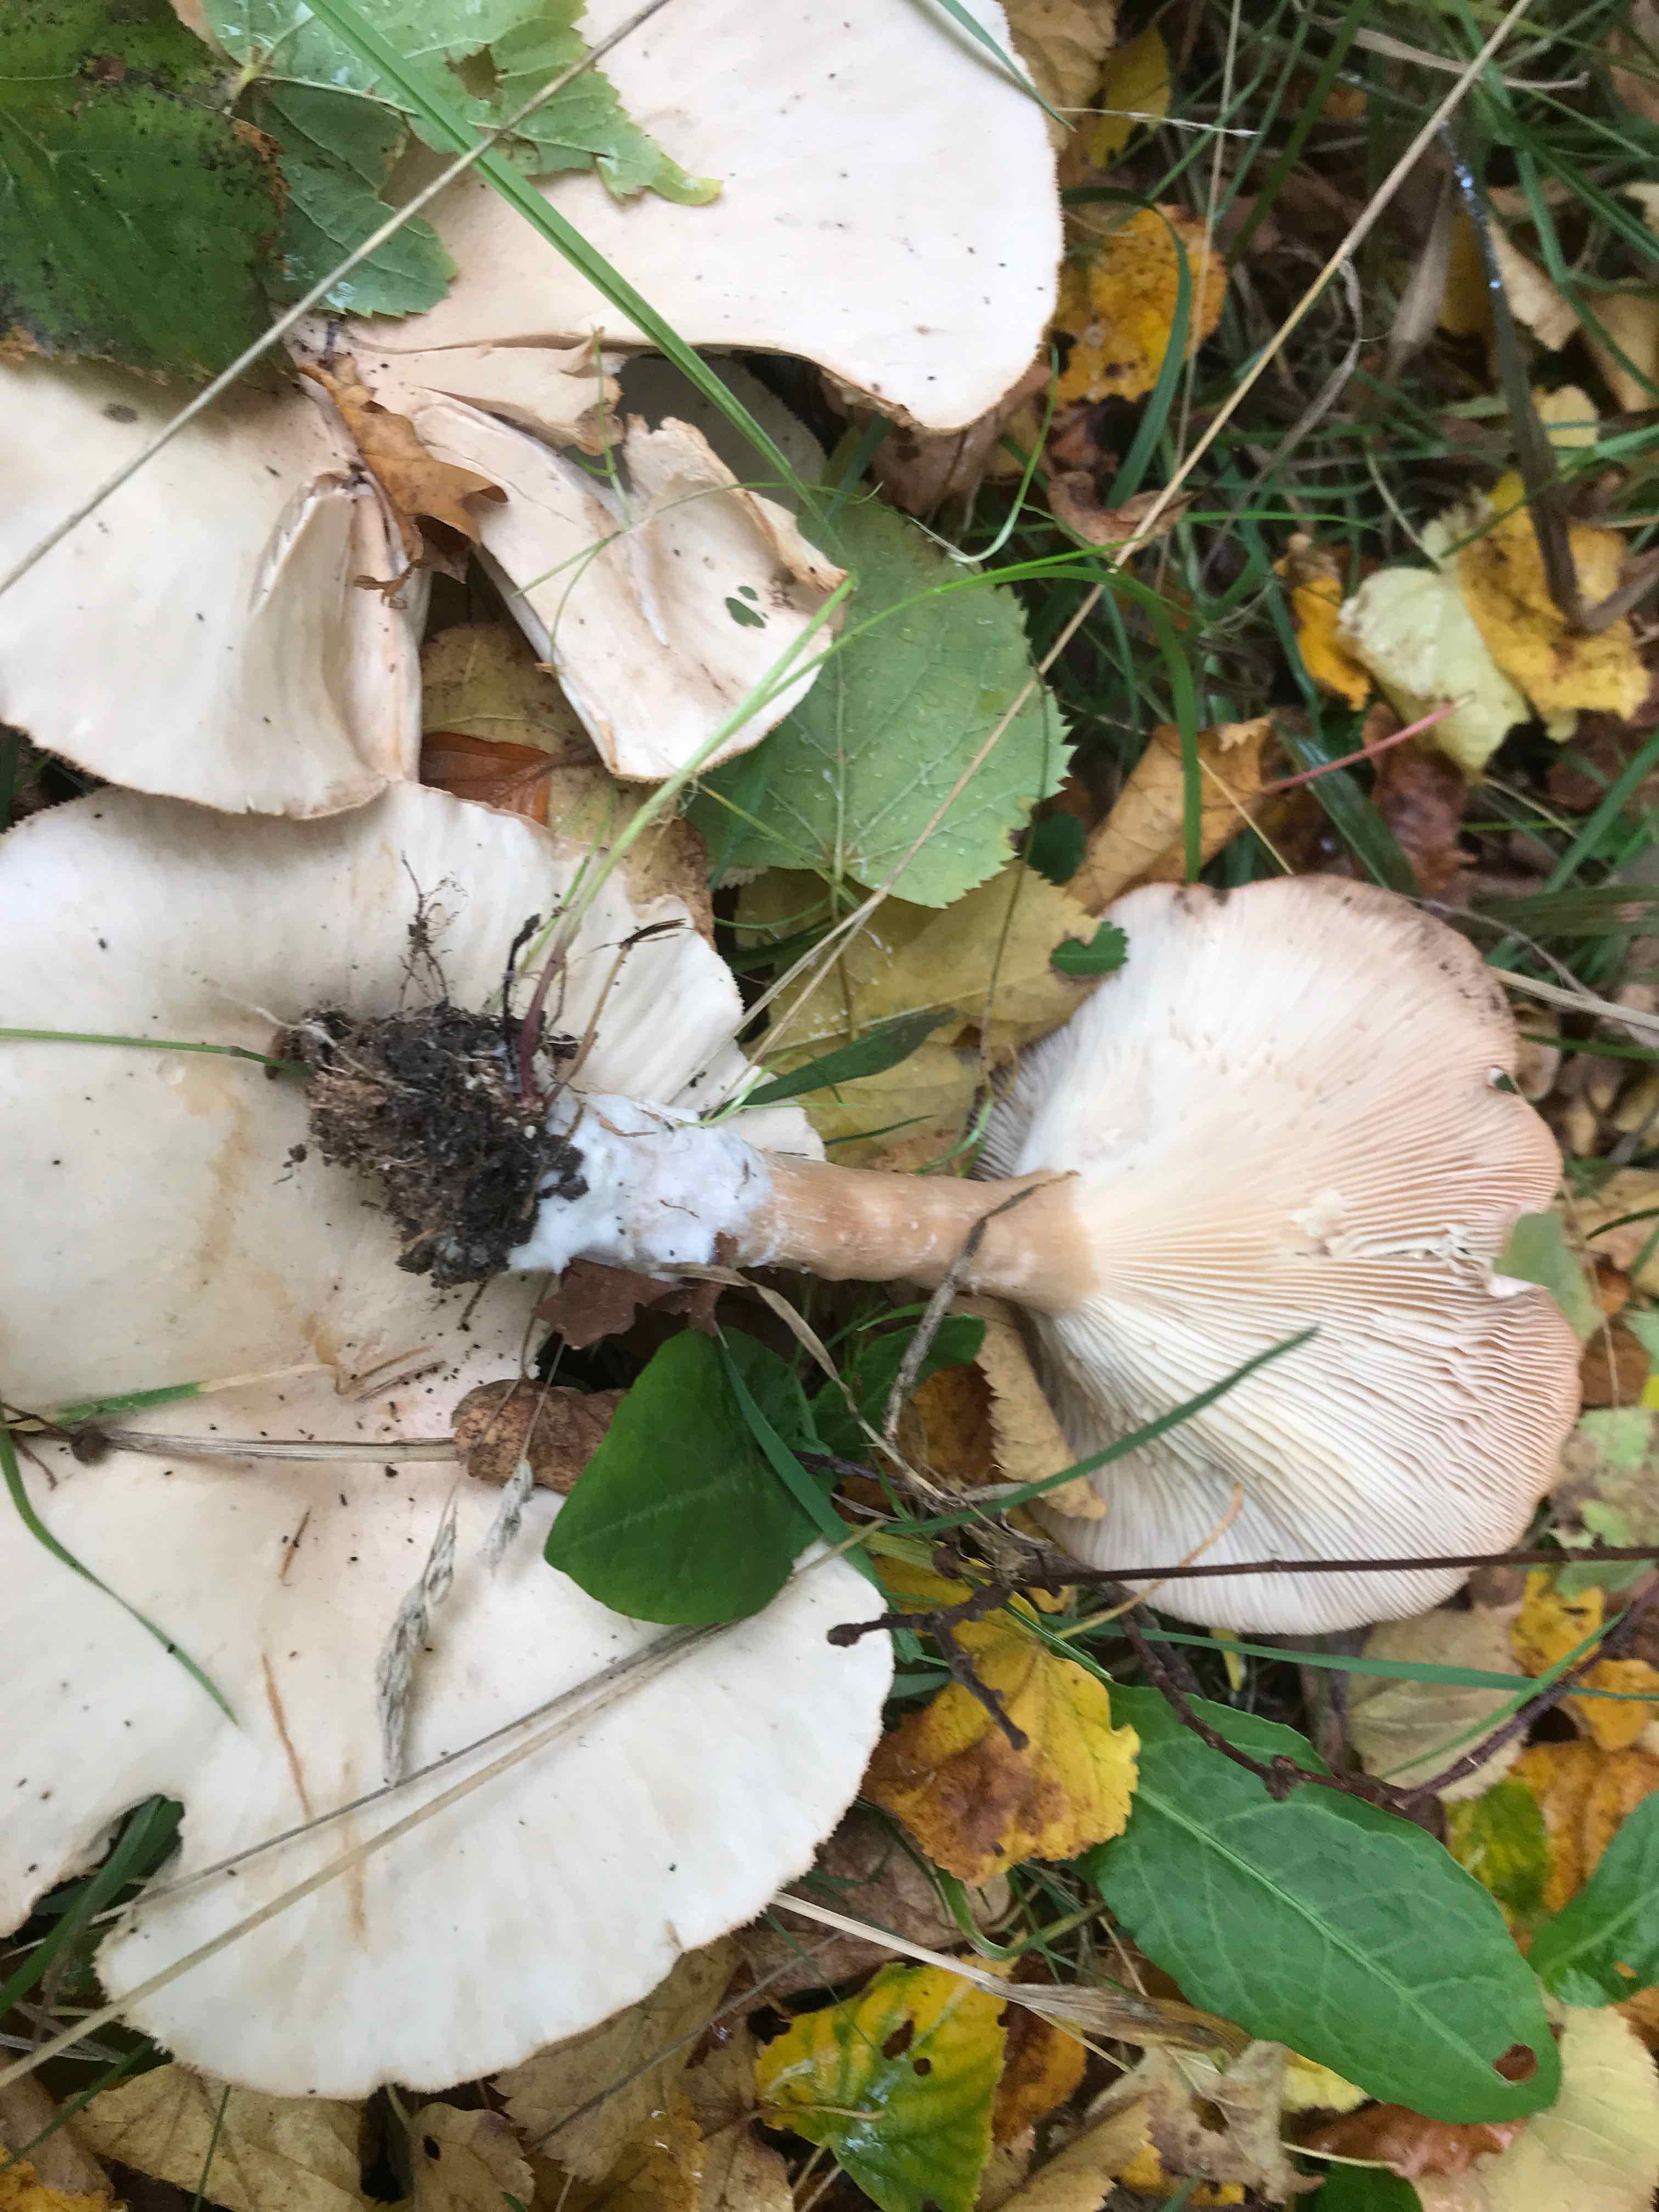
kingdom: Fungi
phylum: Basidiomycota
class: Agaricomycetes
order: Agaricales
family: Tricholomataceae
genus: Infundibulicybe
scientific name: Infundibulicybe geotropa
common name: stor tragthat
